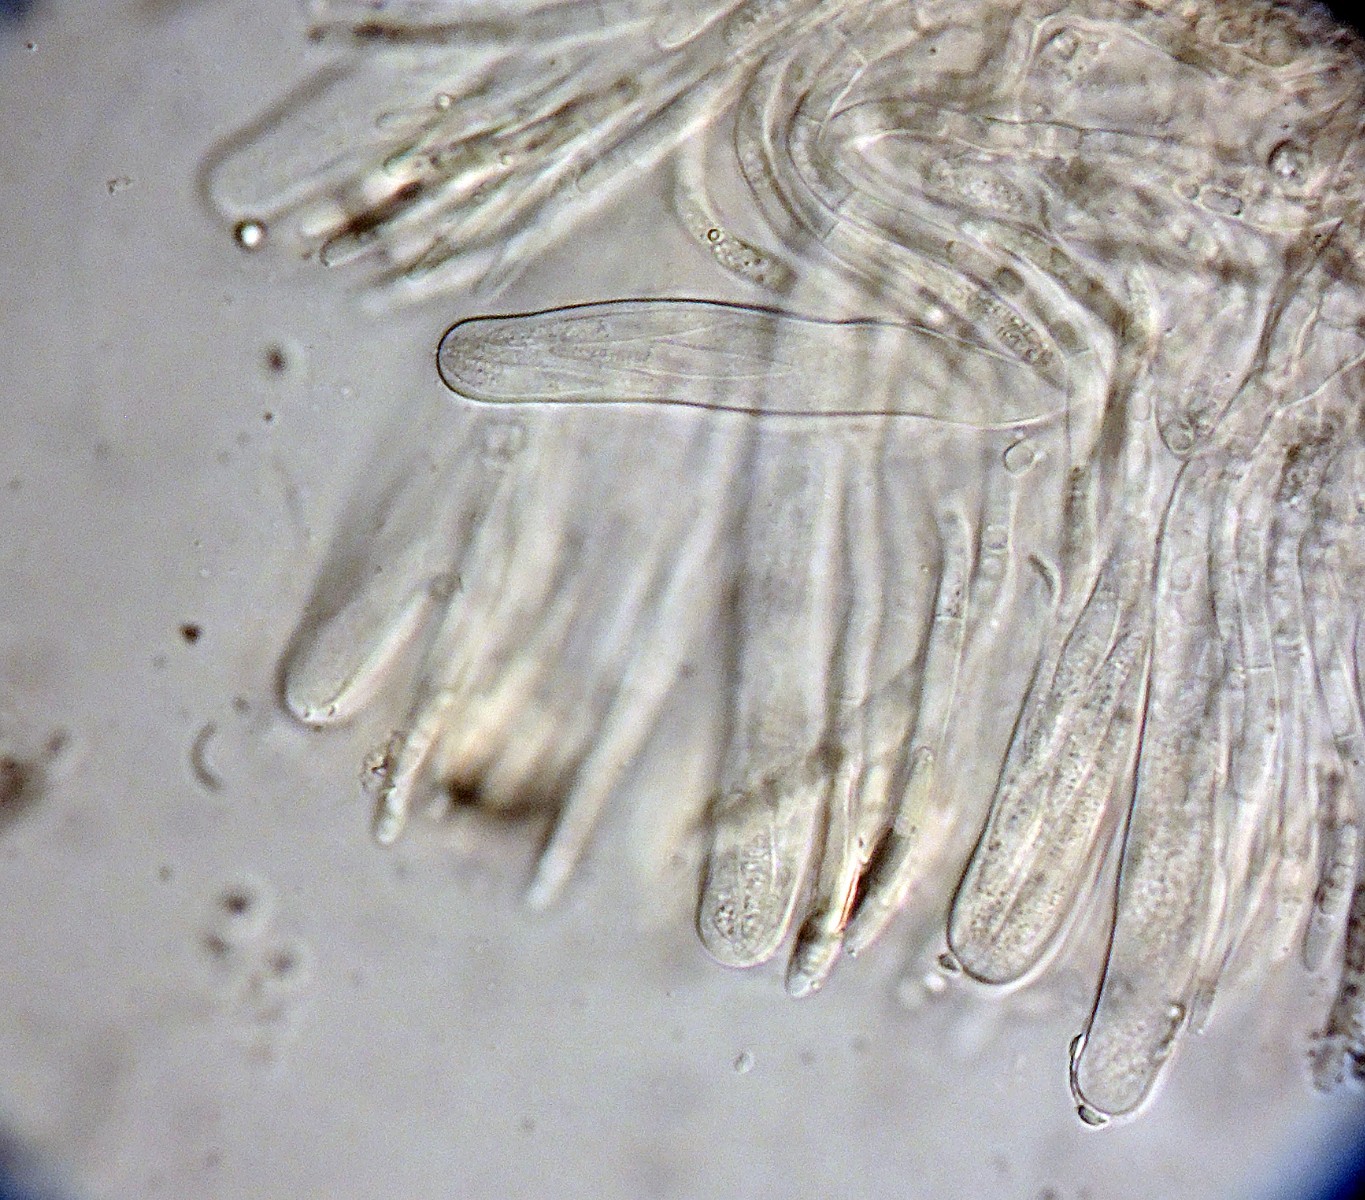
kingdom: Fungi
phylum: Ascomycota
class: Leotiomycetes
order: Helotiales
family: Cenangiaceae
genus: Crumenulopsis
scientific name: Crumenulopsis pinicola
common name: fyrre-filtskive
